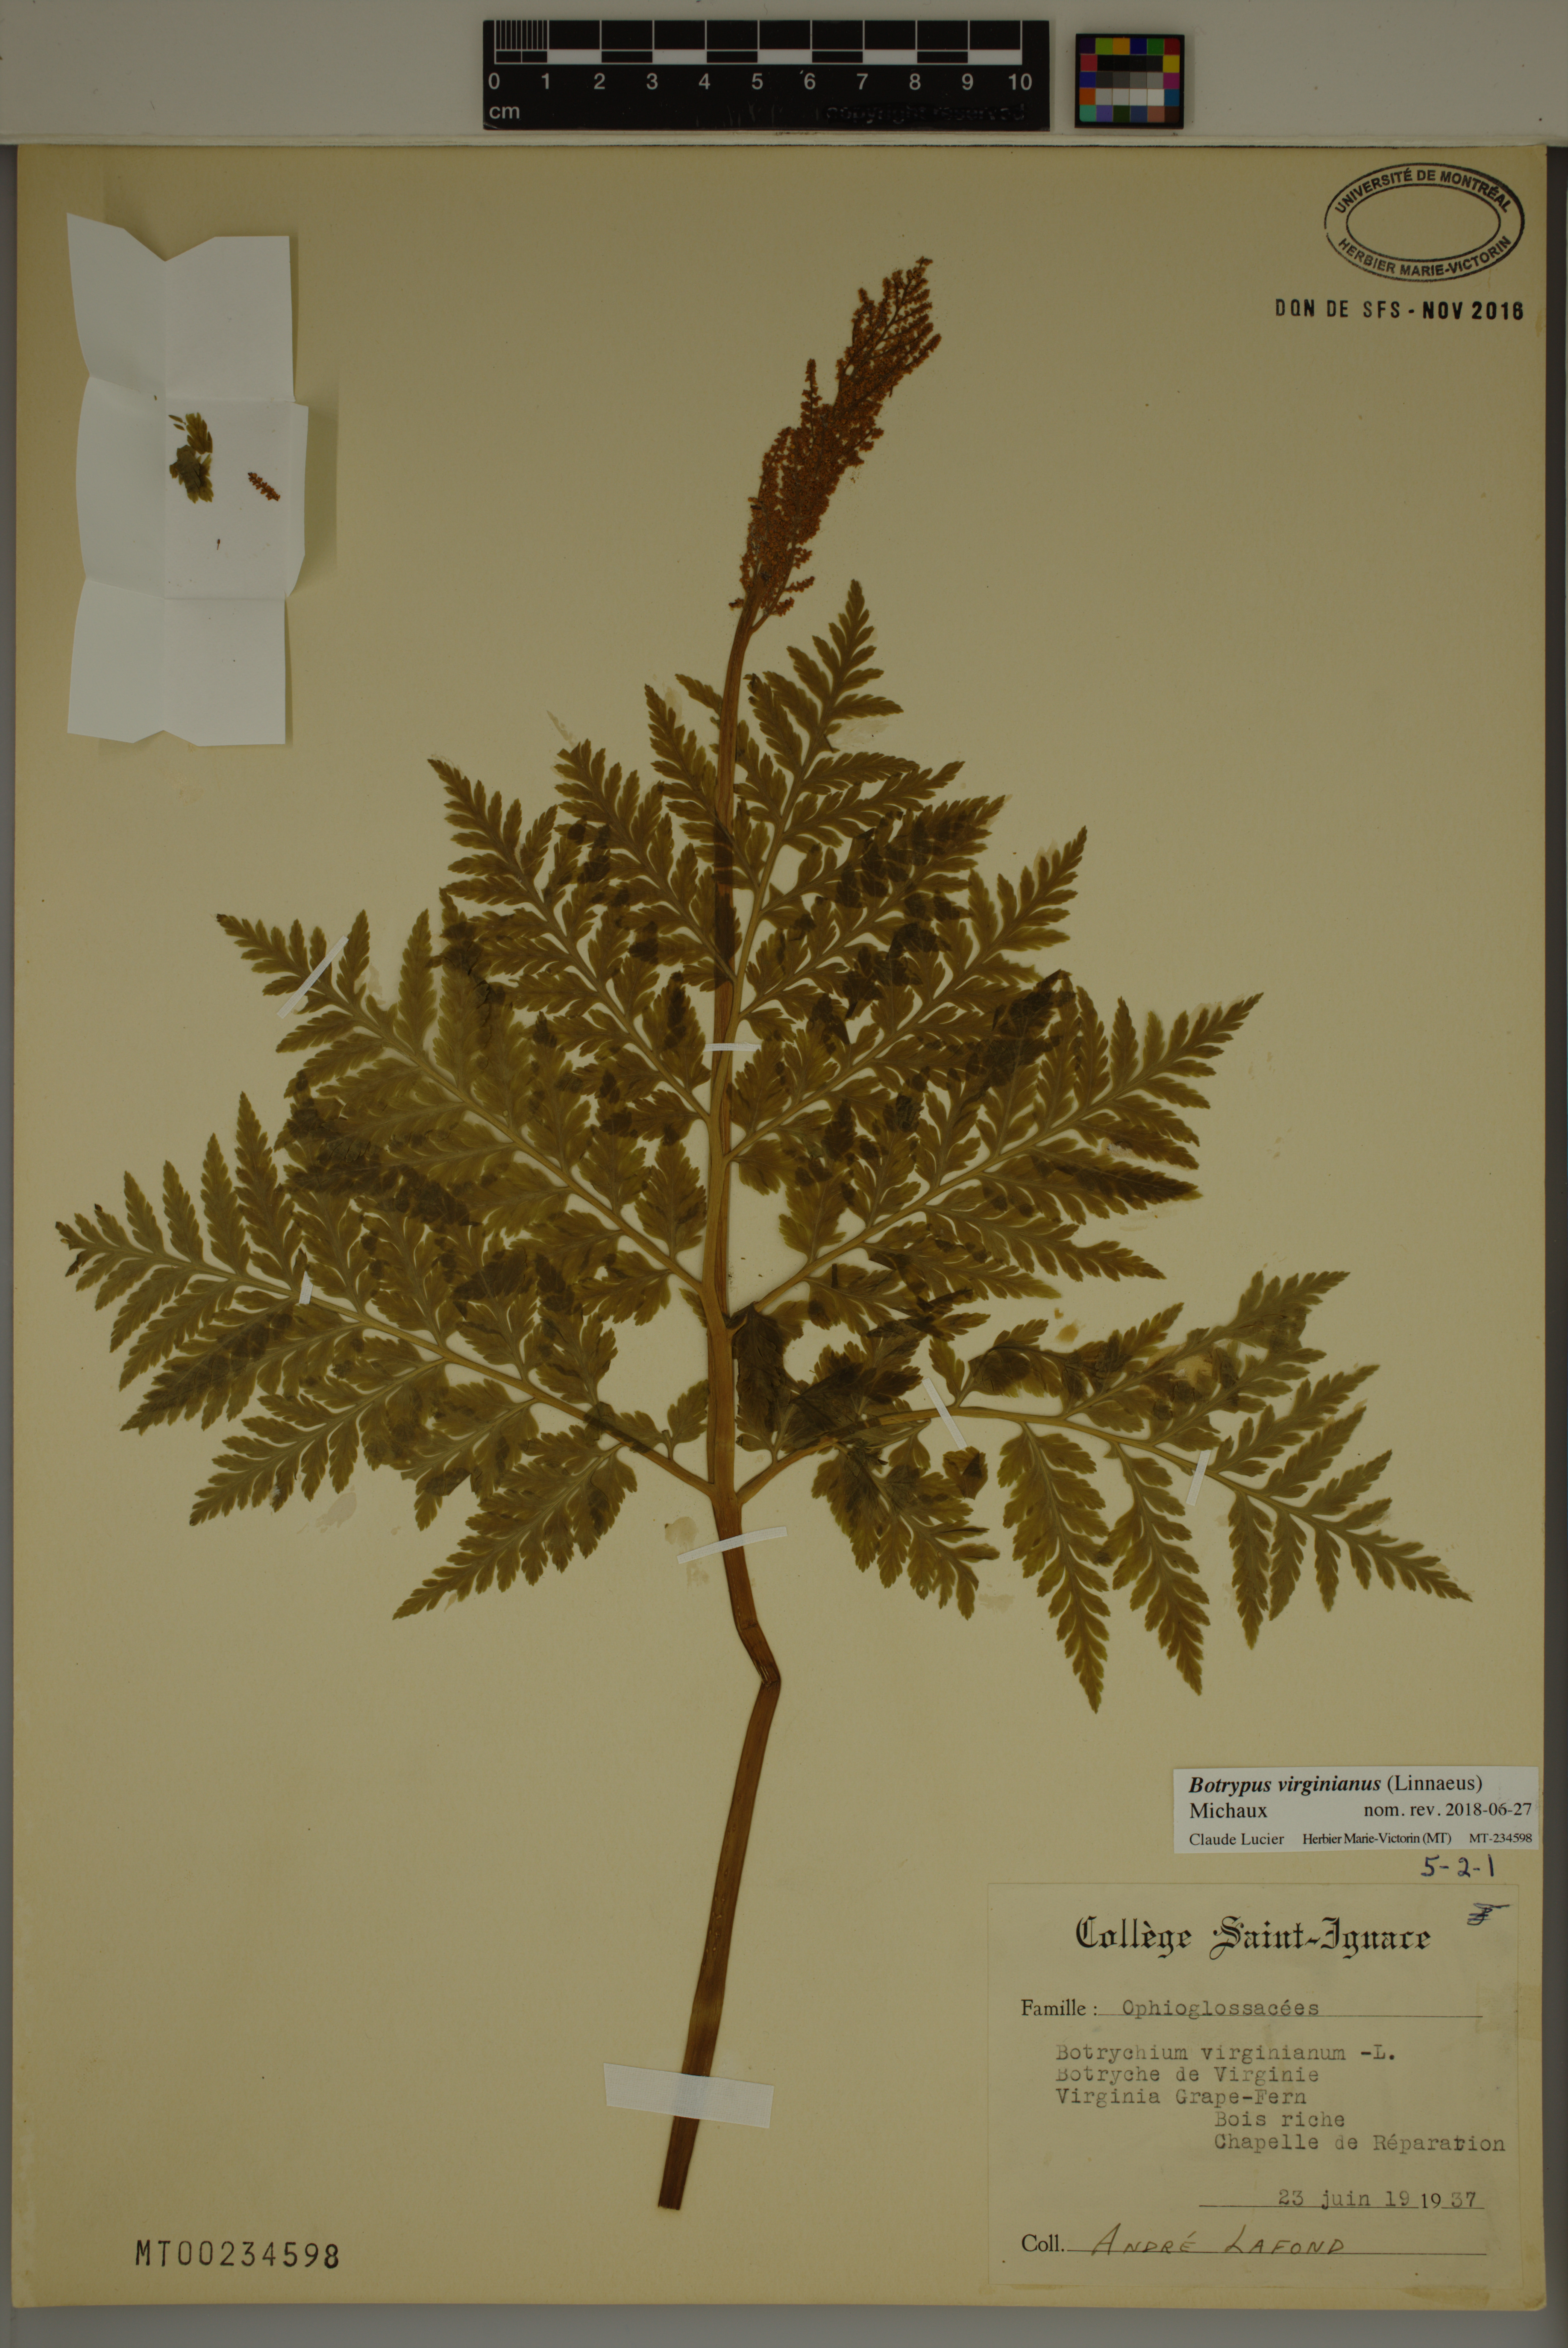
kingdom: Plantae
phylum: Tracheophyta
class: Polypodiopsida
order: Ophioglossales
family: Ophioglossaceae
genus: Botrypus
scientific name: Botrypus virginianus
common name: Common grapefern
